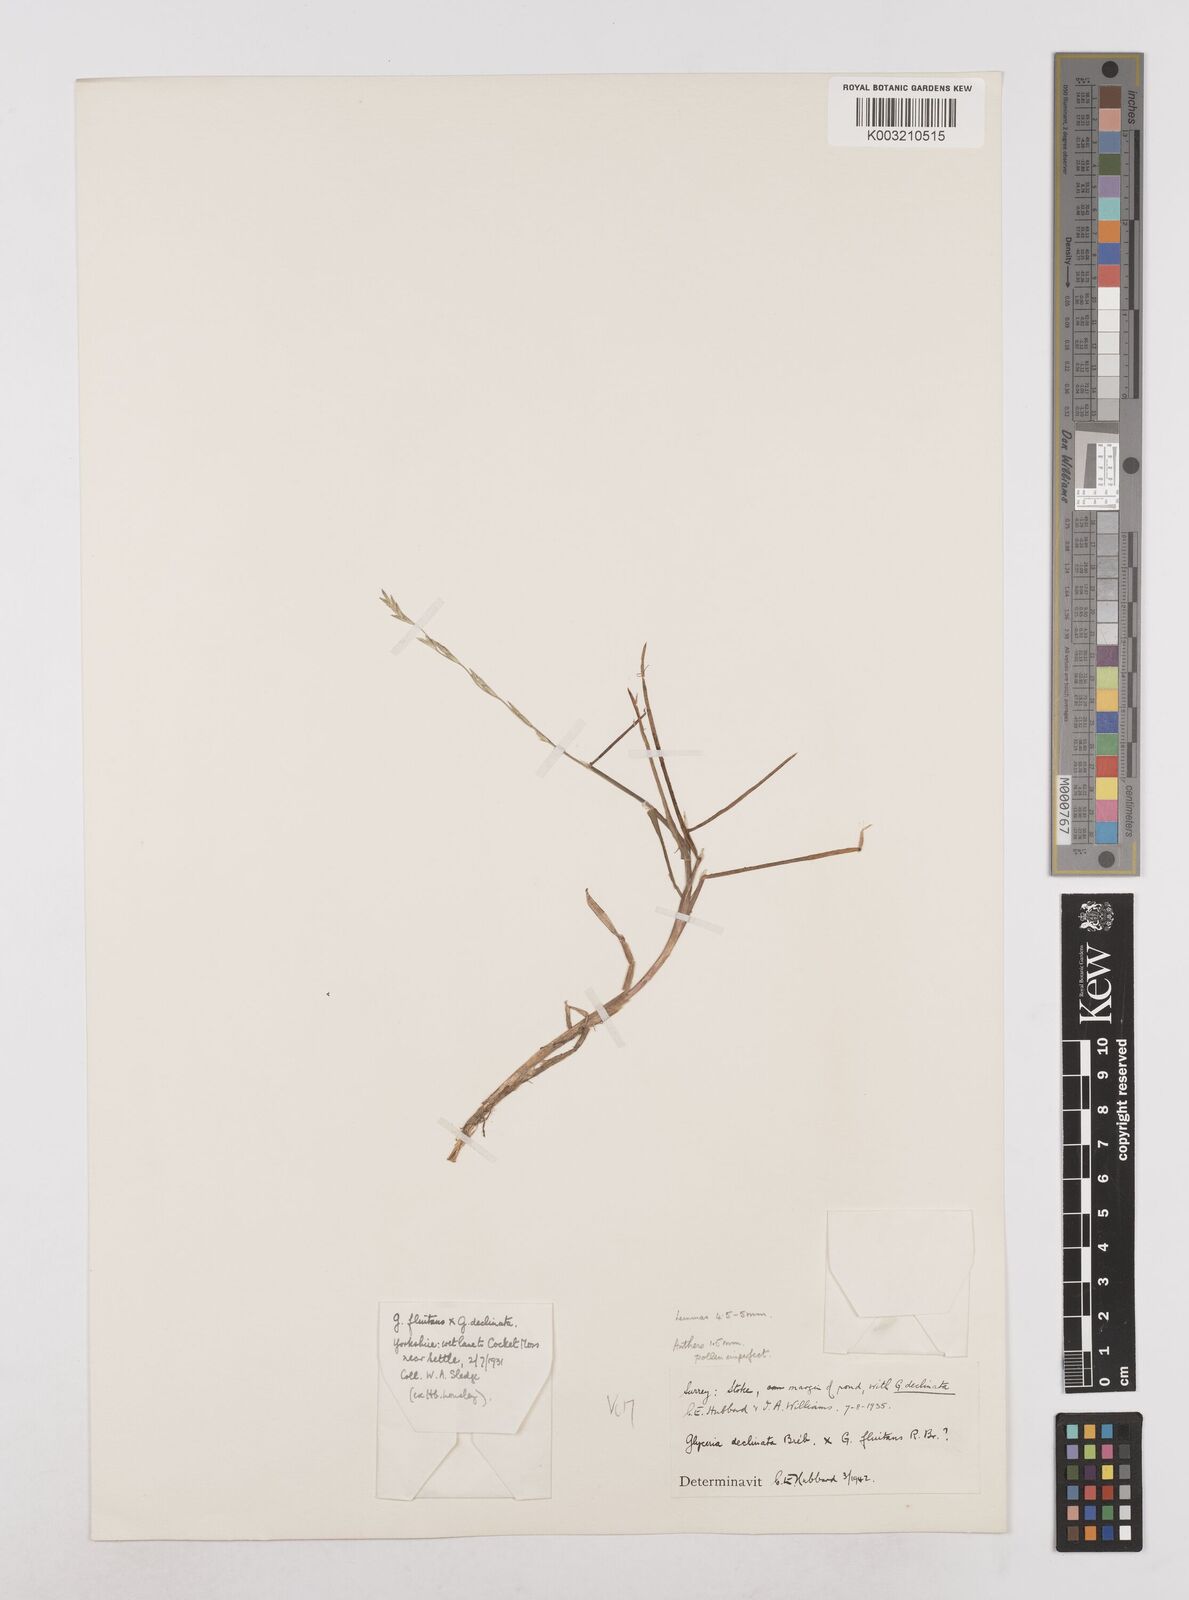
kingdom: Plantae
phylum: Tracheophyta
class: Liliopsida
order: Poales
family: Poaceae
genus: Glyceria
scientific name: Glyceria declinata
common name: Small sweet-grass
